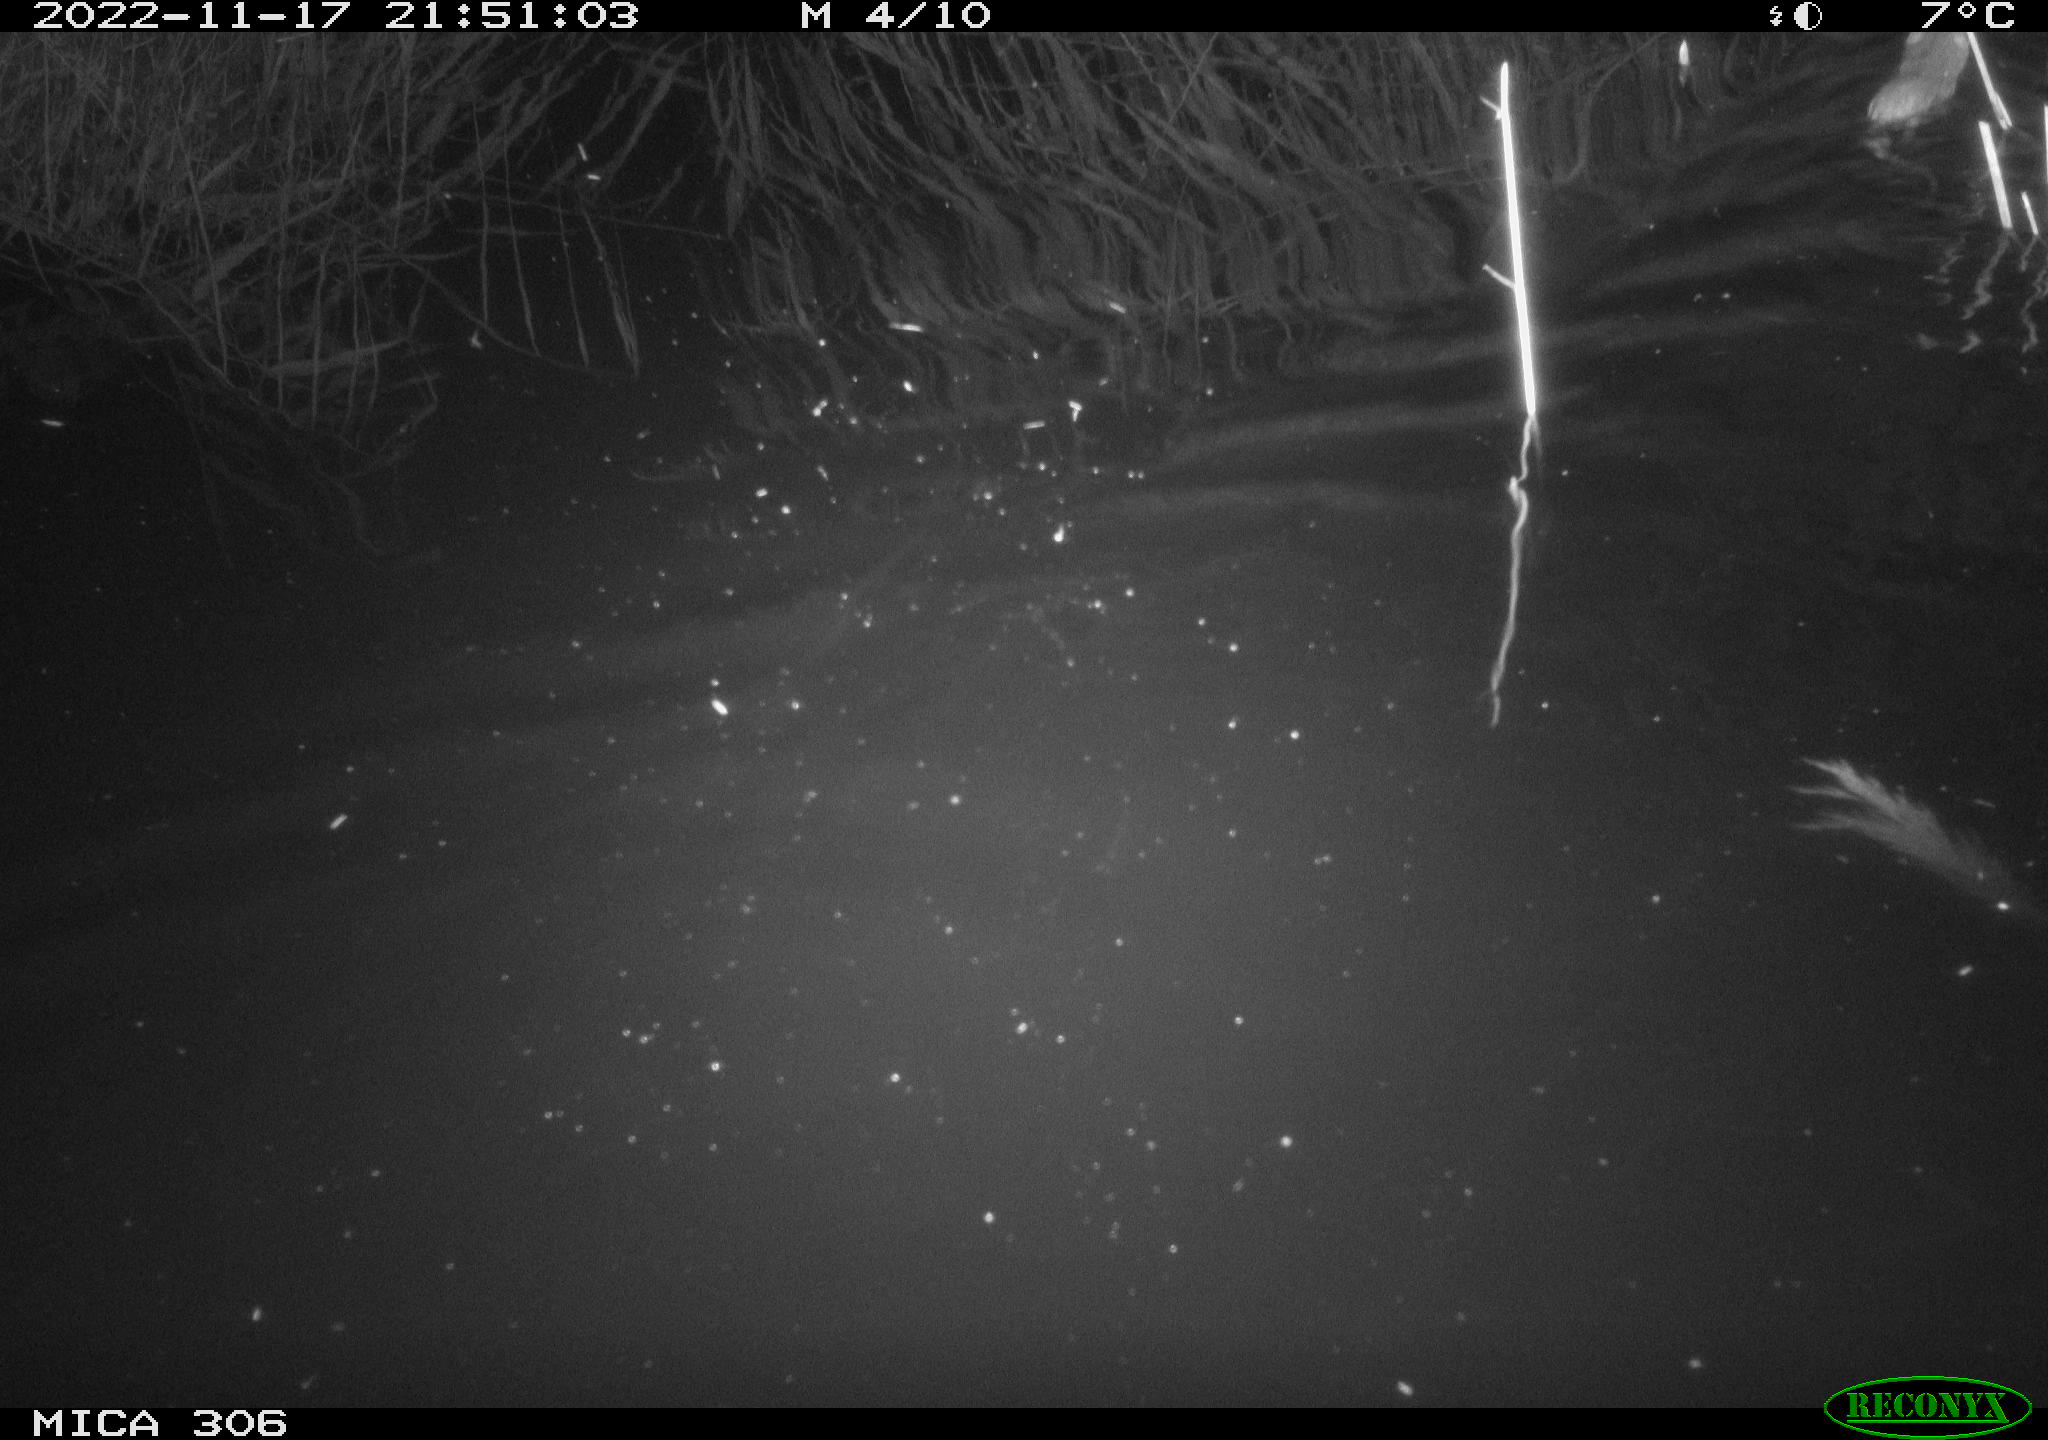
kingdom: Animalia
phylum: Chordata
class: Mammalia
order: Rodentia
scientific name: Rodentia
